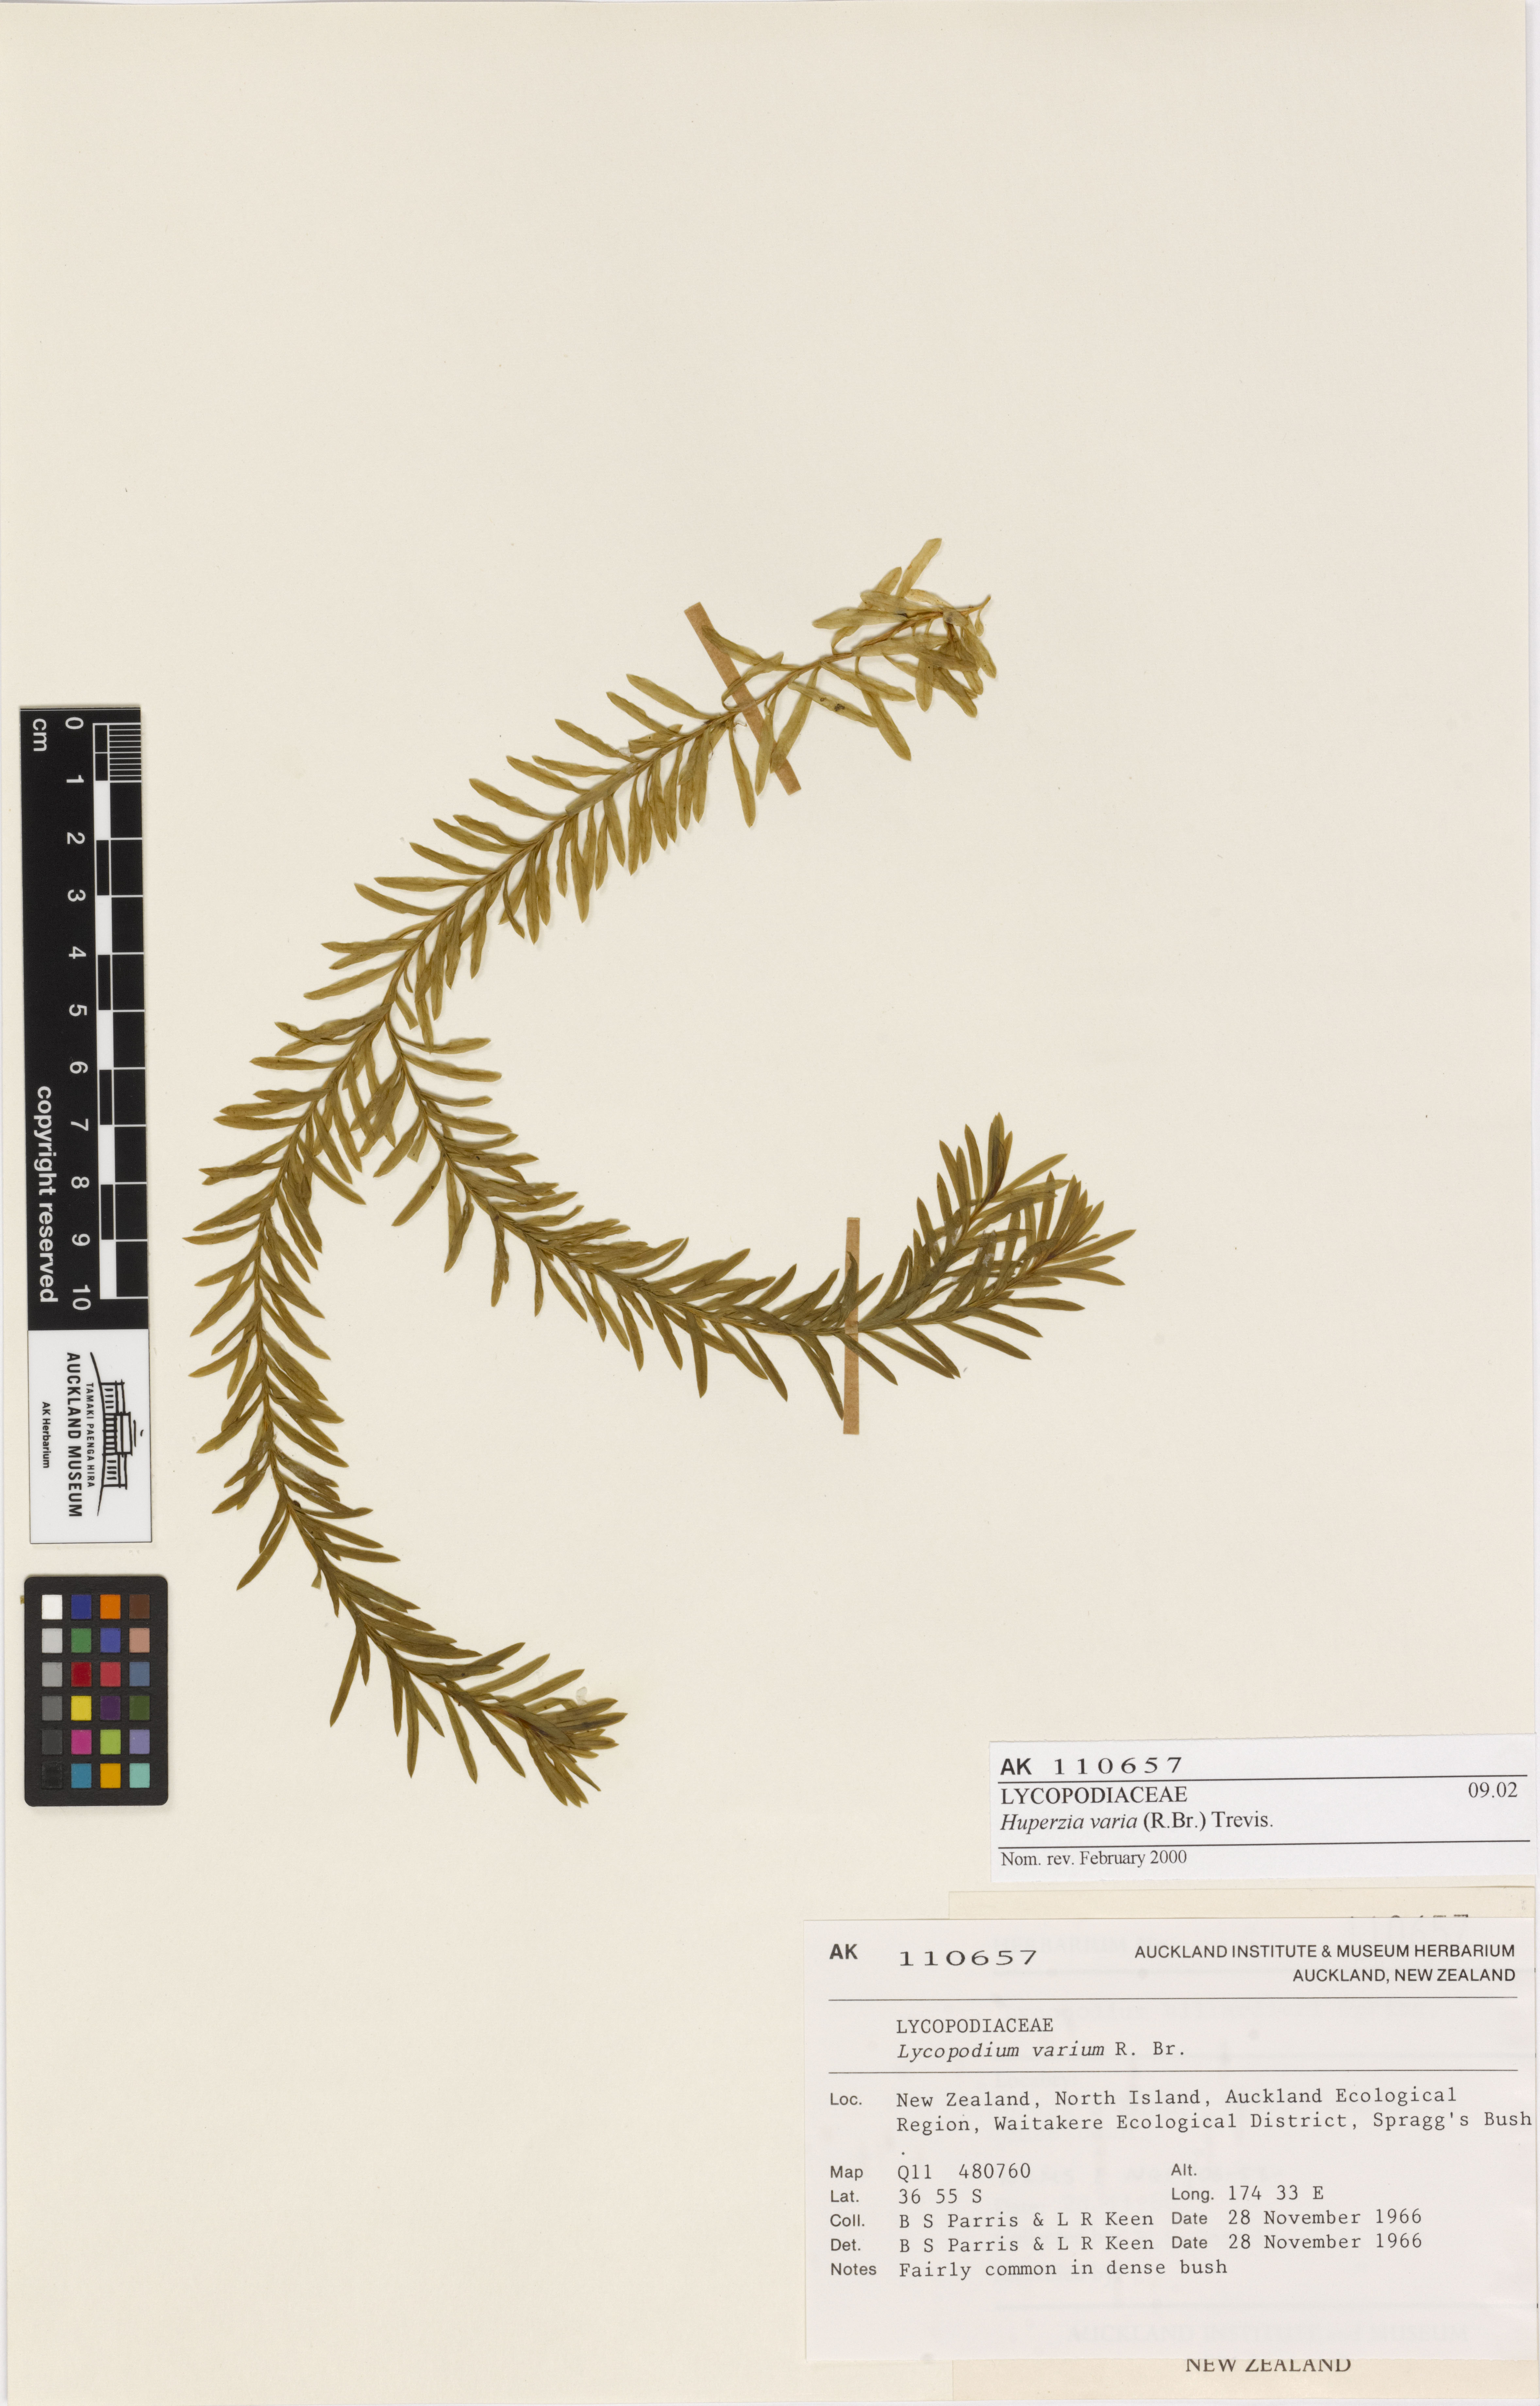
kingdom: Plantae
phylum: Tracheophyta
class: Lycopodiopsida
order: Lycopodiales
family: Lycopodiaceae
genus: Phlegmariurus
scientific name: Phlegmariurus
